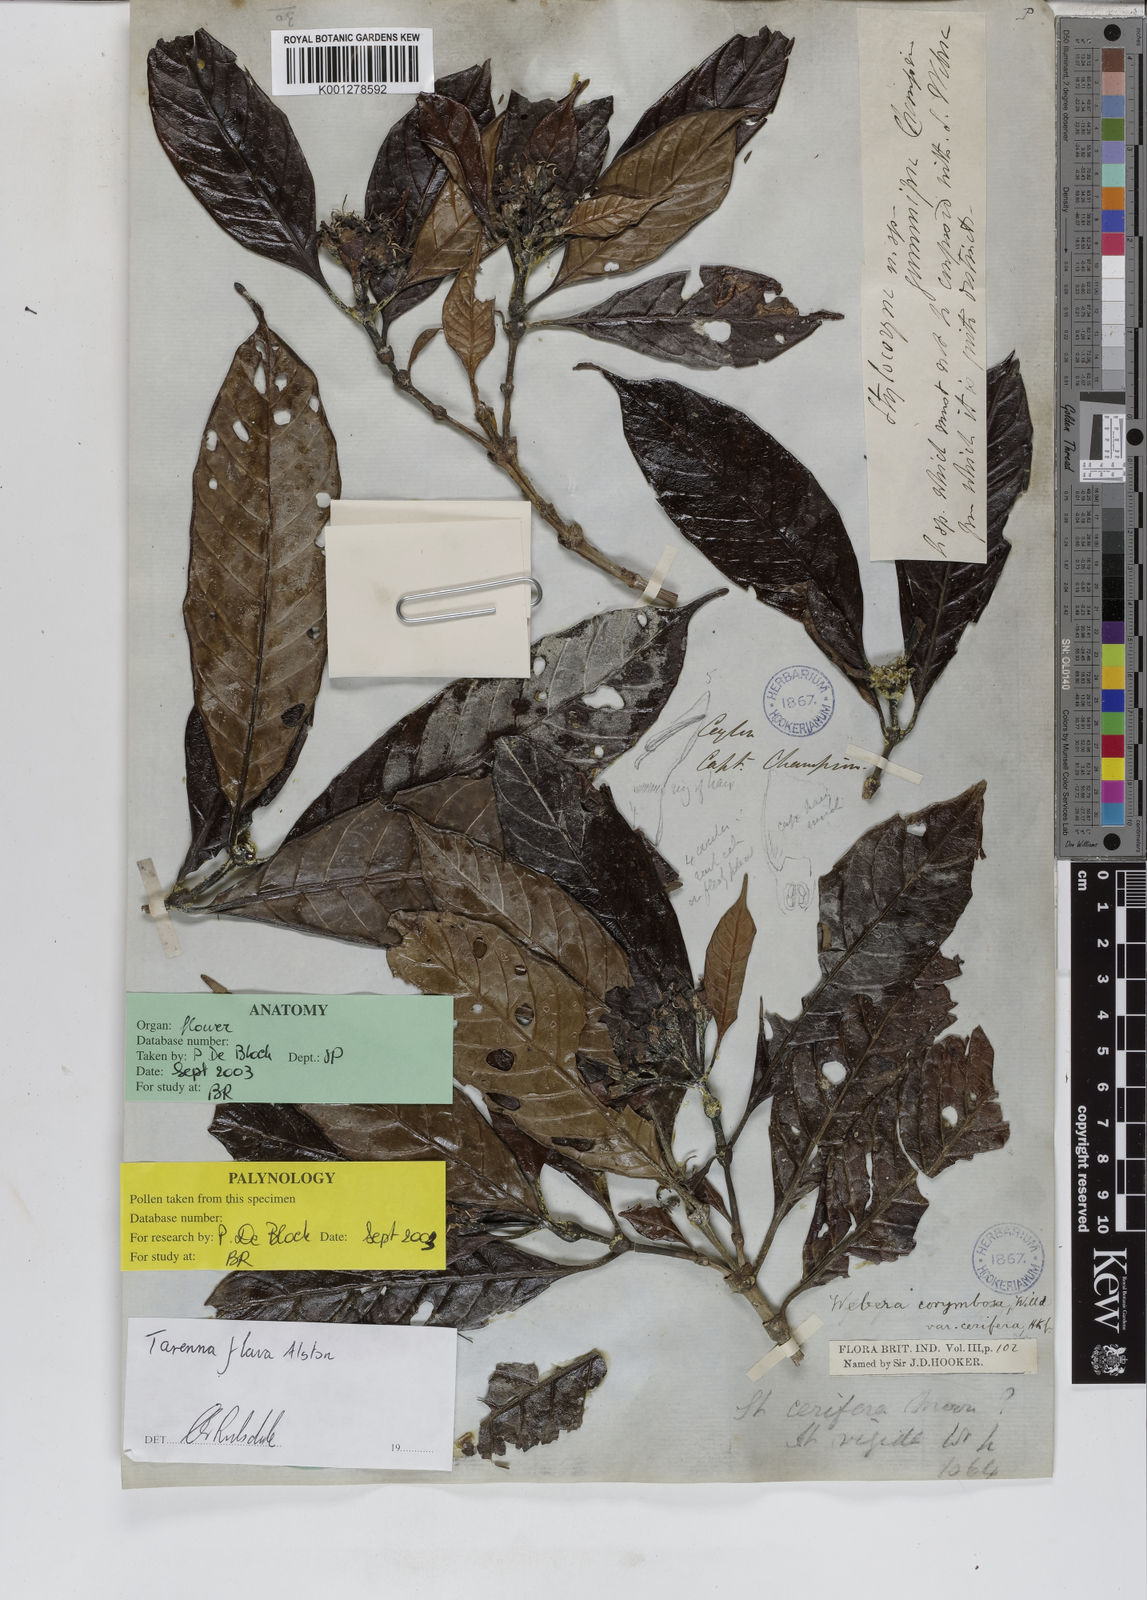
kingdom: Plantae
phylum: Tracheophyta
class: Magnoliopsida
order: Gentianales
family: Rubiaceae
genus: Tarenna
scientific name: Tarenna flava
